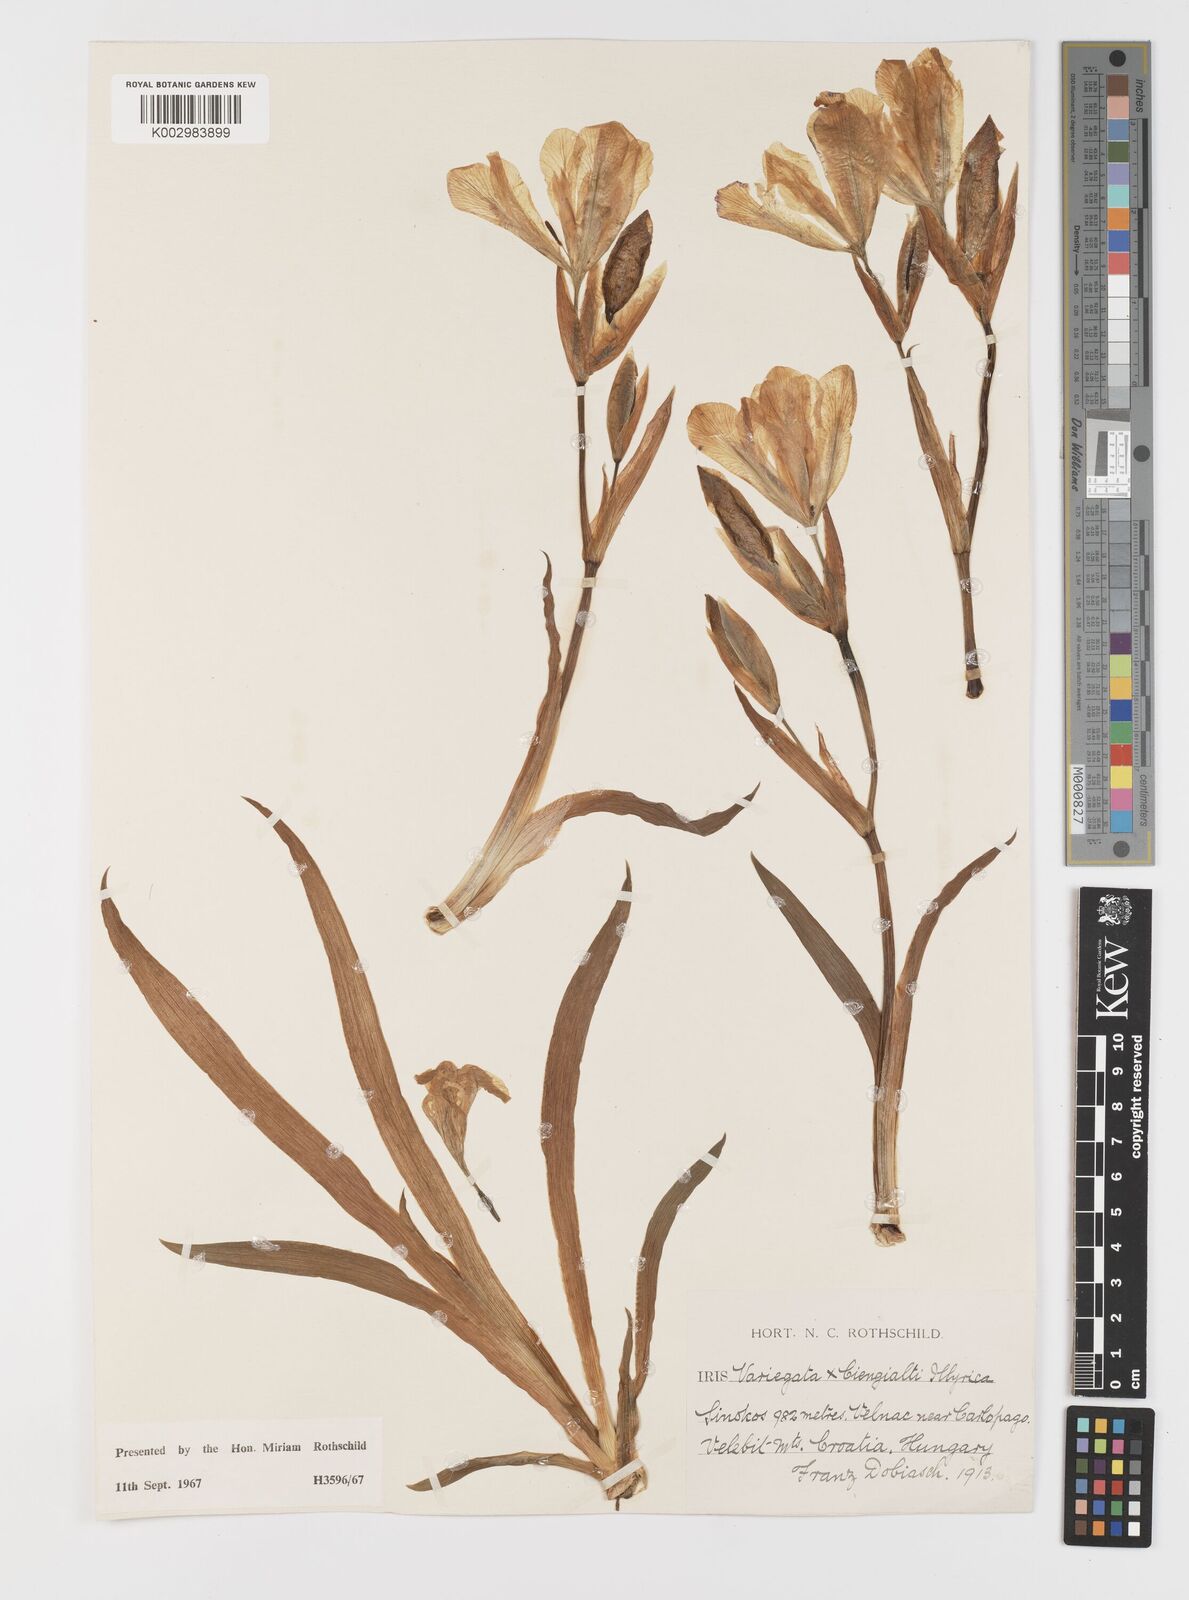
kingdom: Plantae
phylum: Tracheophyta
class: Liliopsida
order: Asparagales
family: Iridaceae
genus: Iris
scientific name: Iris germanica
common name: German iris
